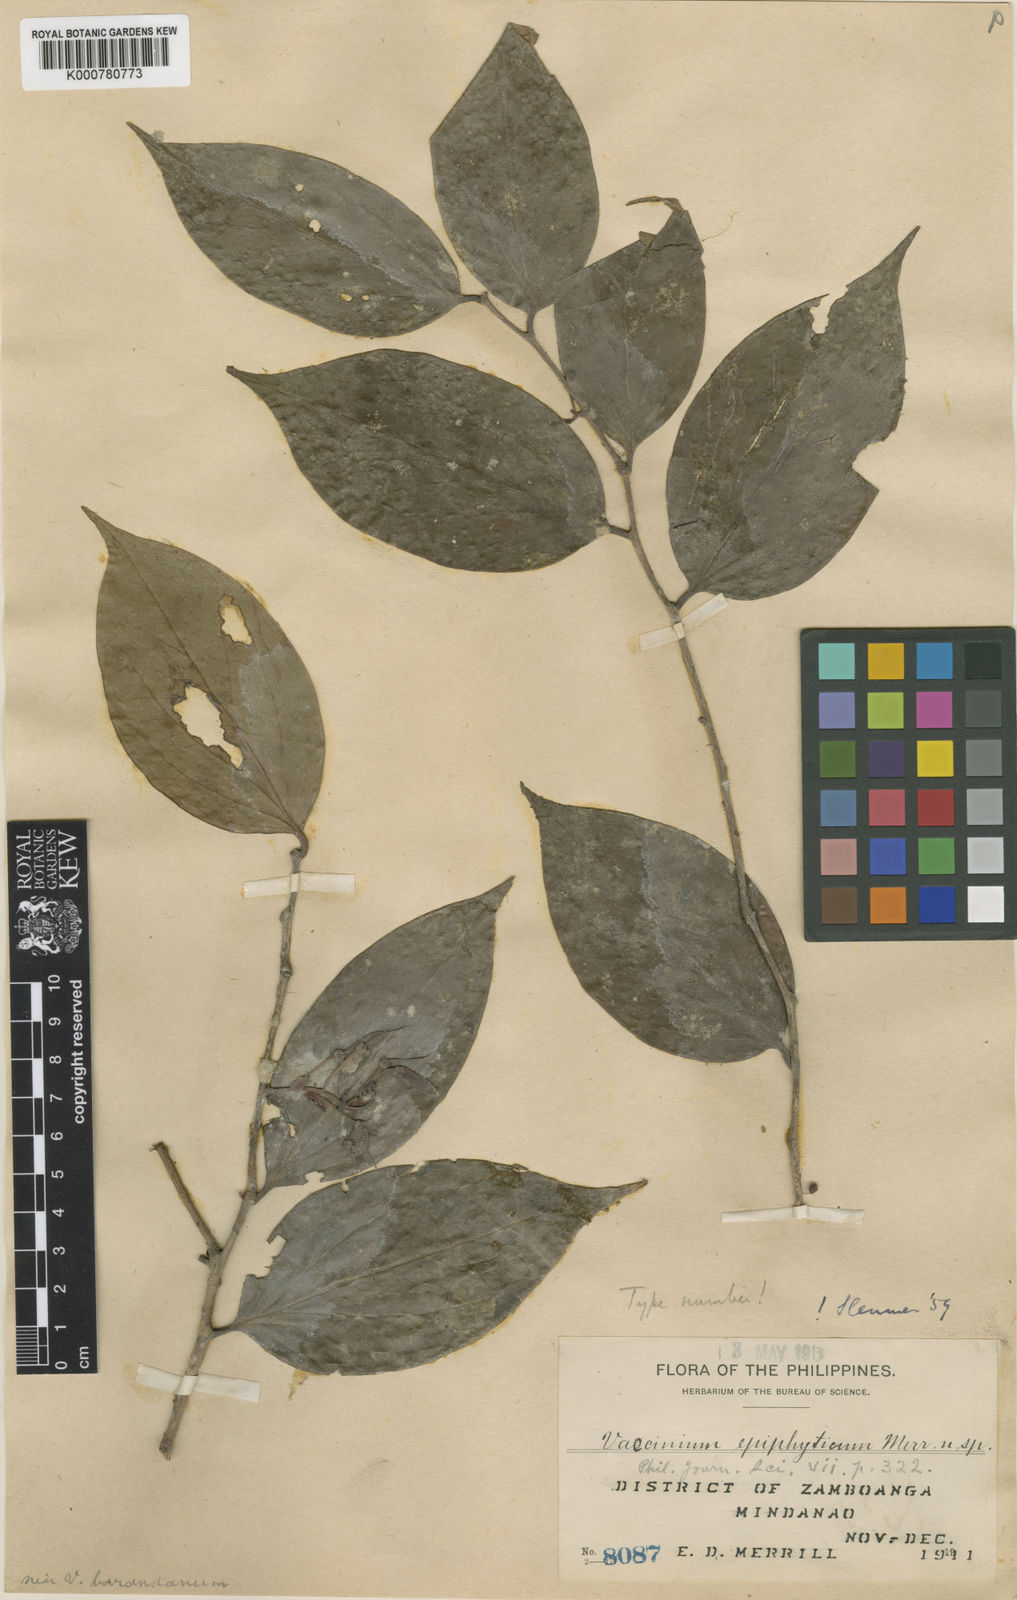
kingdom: Plantae
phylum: Tracheophyta
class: Magnoliopsida
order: Ericales
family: Ericaceae
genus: Vaccinium
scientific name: Vaccinium epiphyticum
